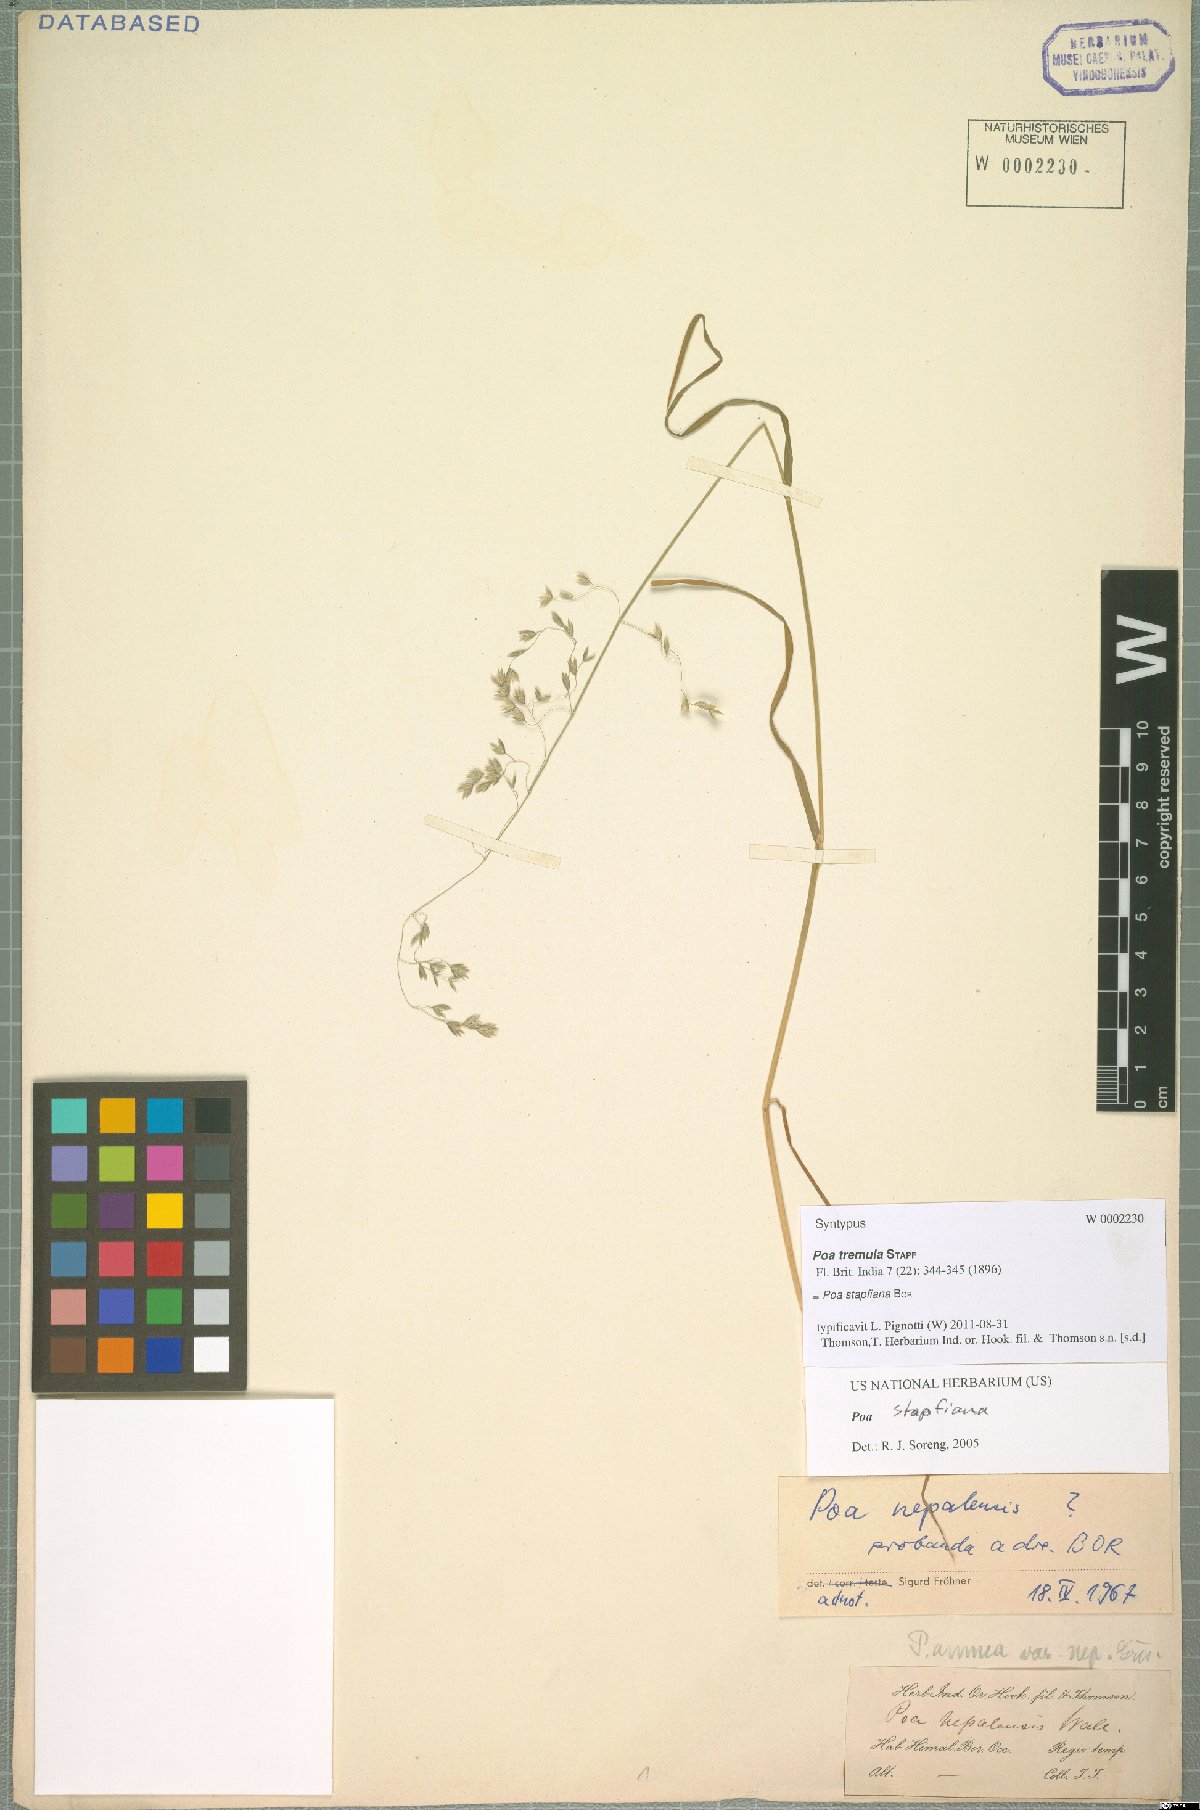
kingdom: Plantae
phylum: Tracheophyta
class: Liliopsida
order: Poales
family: Poaceae
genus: Poa
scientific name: Poa stapfiana
